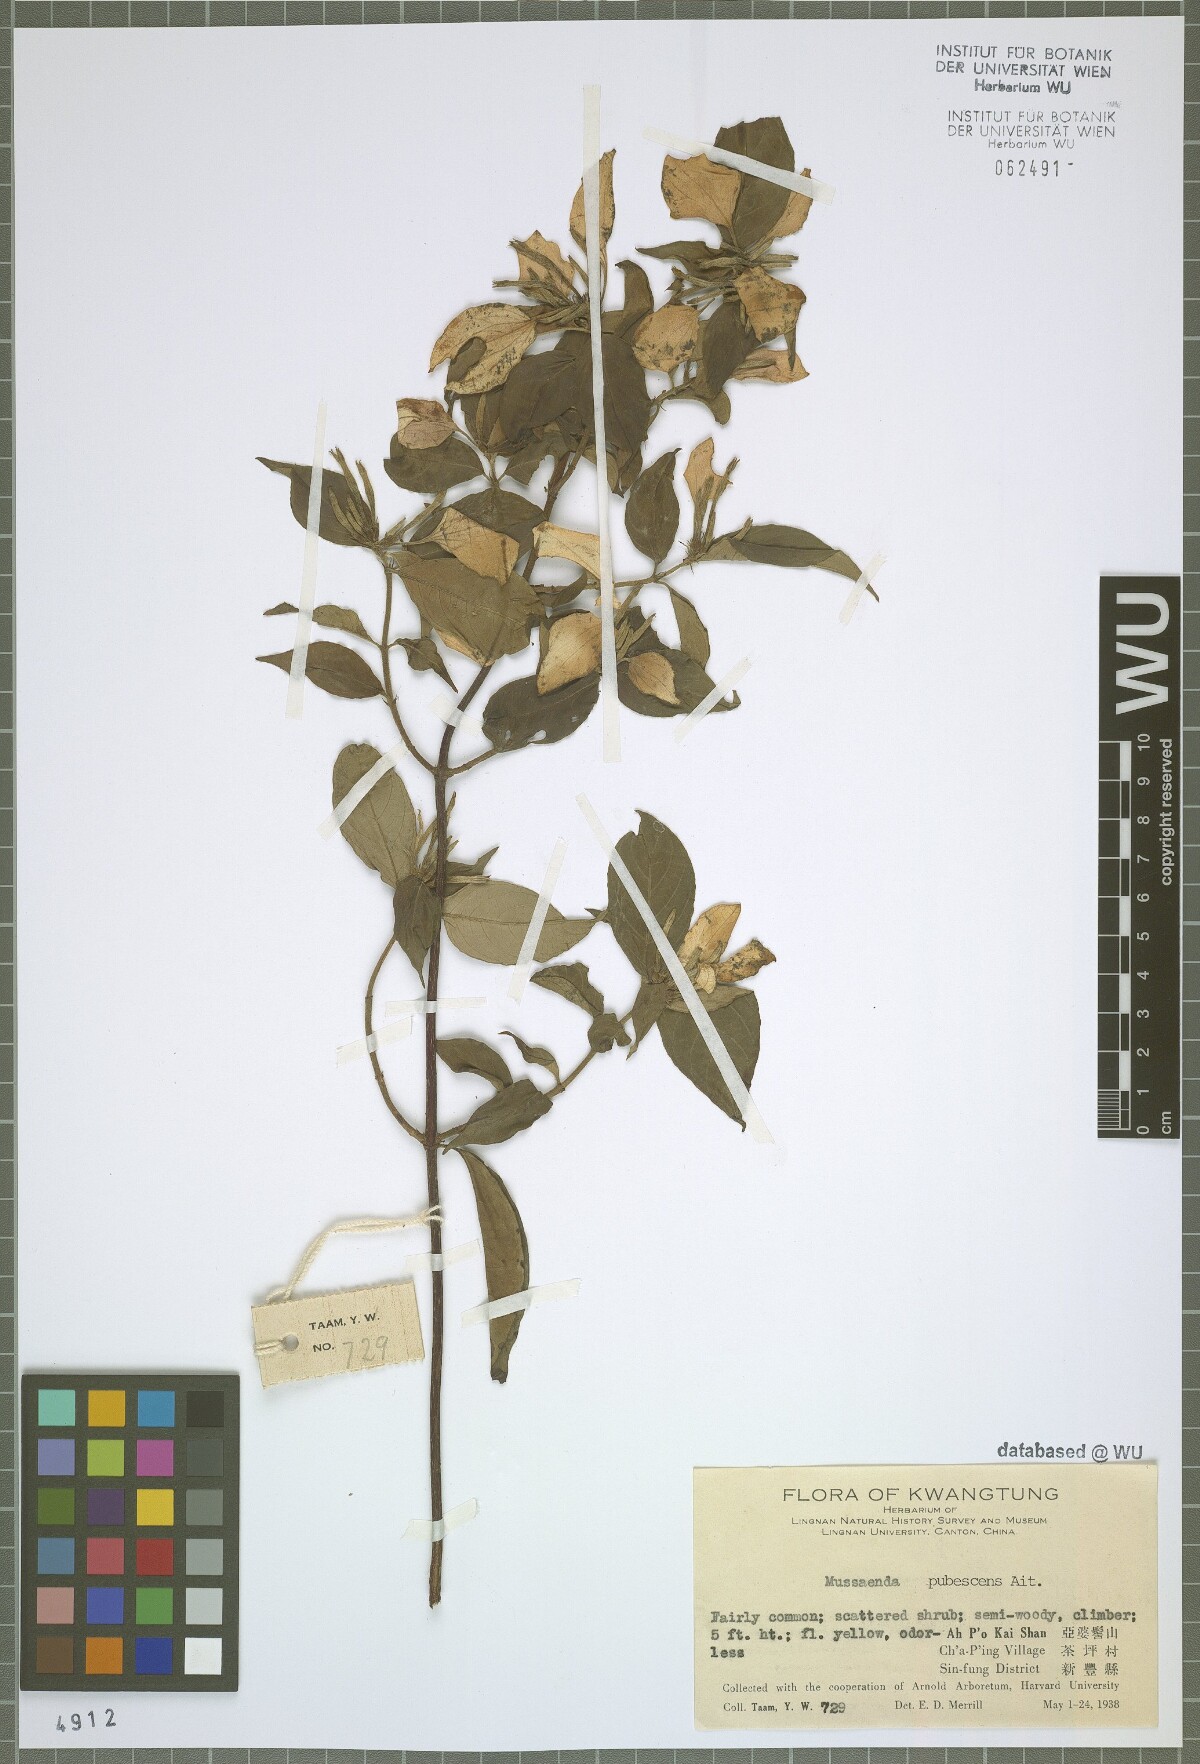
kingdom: Plantae
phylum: Tracheophyta
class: Magnoliopsida
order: Gentianales
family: Rubiaceae
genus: Mussaenda
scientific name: Mussaenda pubescens
